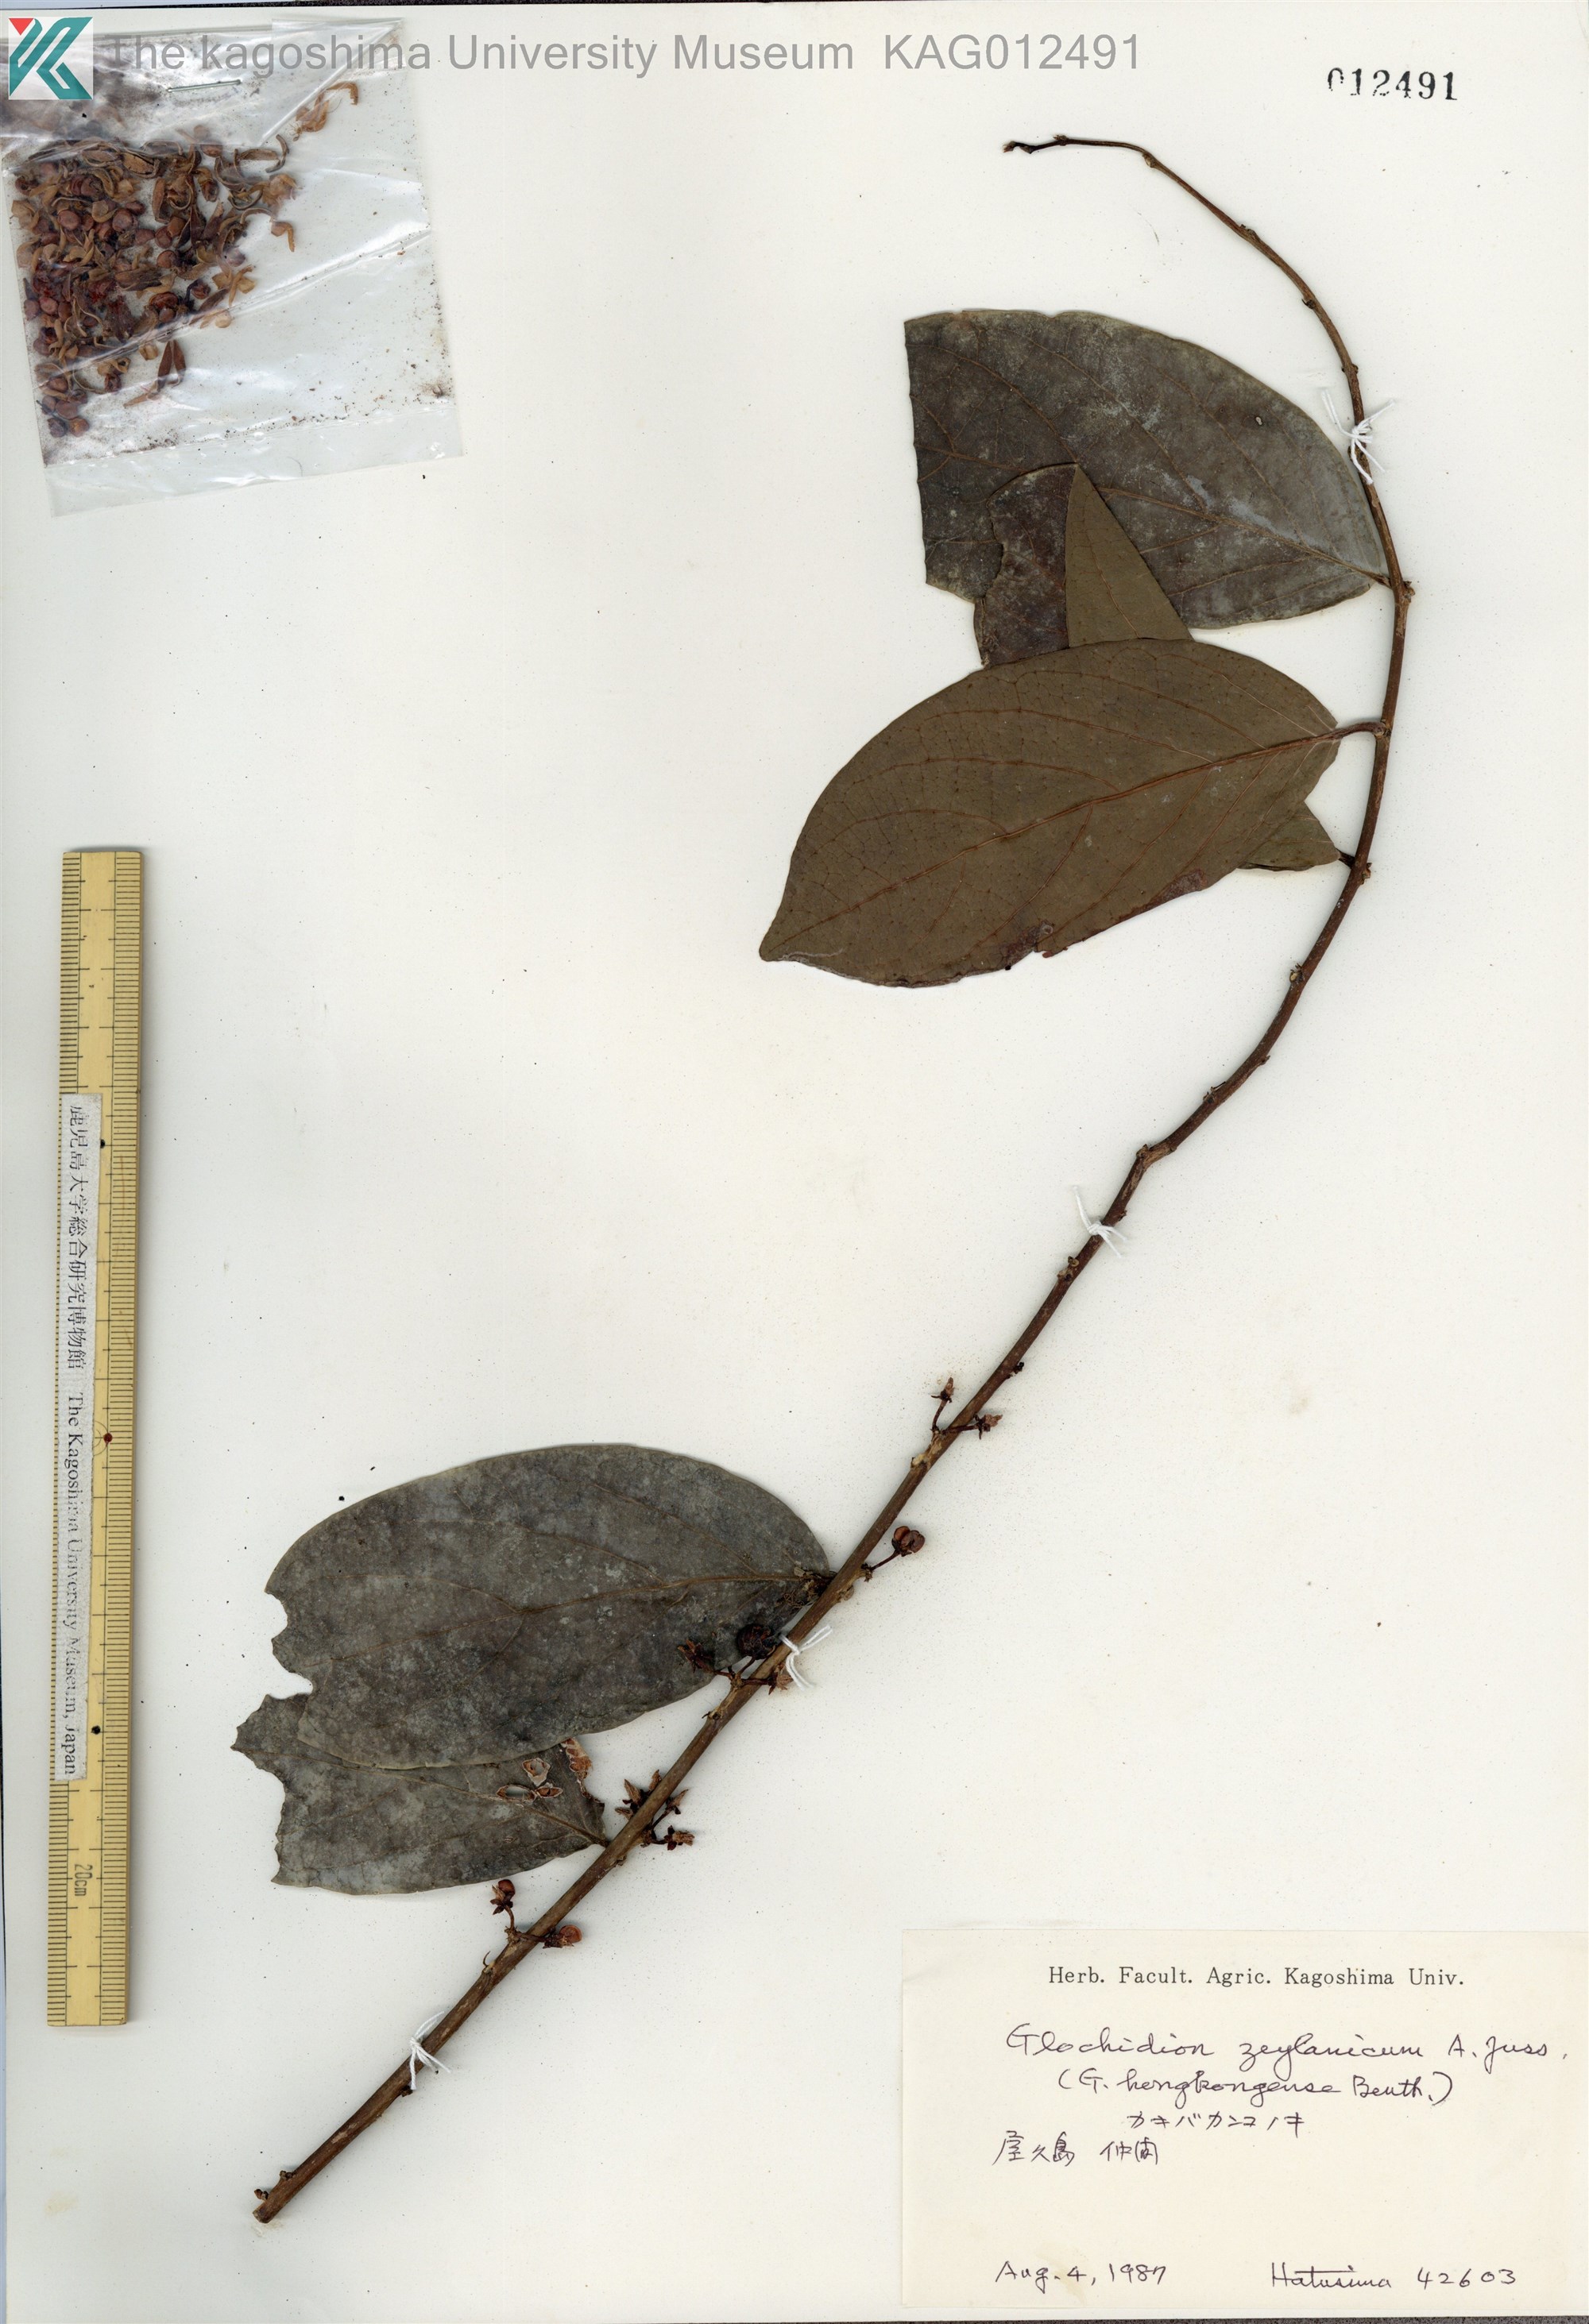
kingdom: Plantae
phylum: Tracheophyta
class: Magnoliopsida
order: Malpighiales
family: Phyllanthaceae
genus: Glochidion
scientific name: Glochidion zeylanicum
